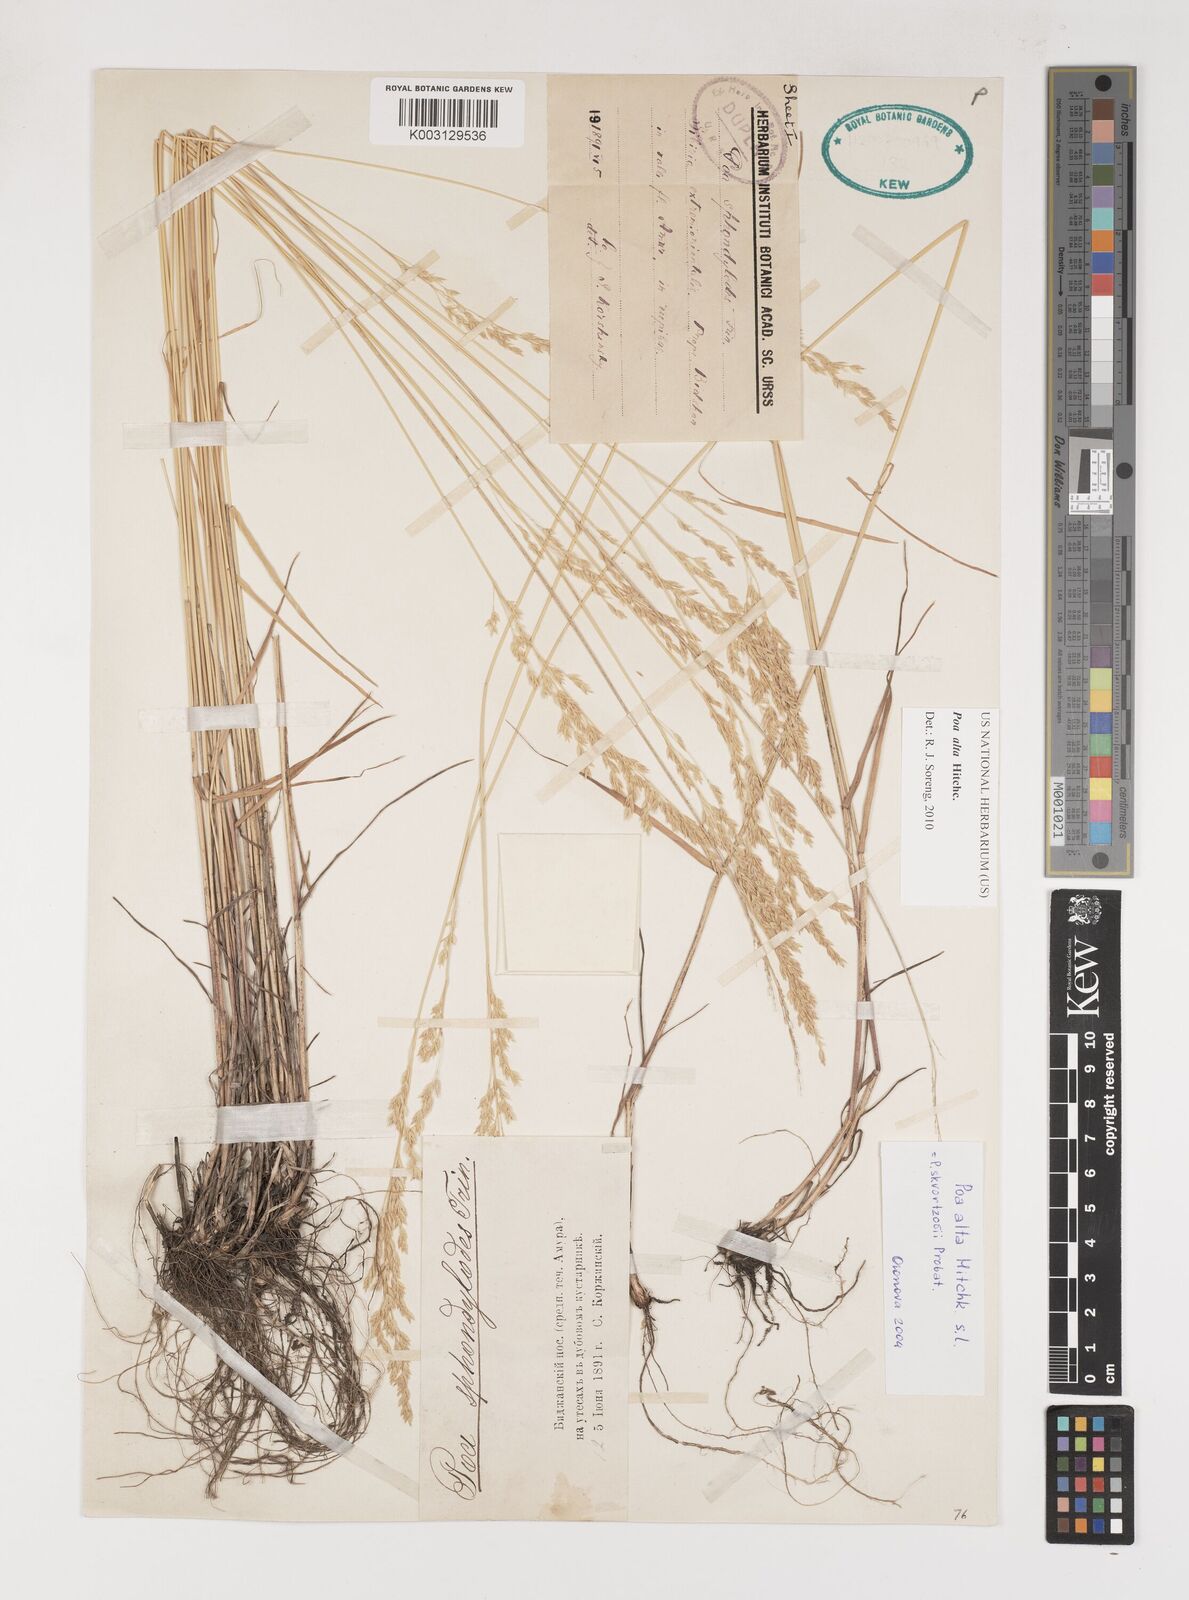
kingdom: Plantae
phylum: Tracheophyta
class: Liliopsida
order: Poales
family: Poaceae
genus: Poa
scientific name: Poa alta
